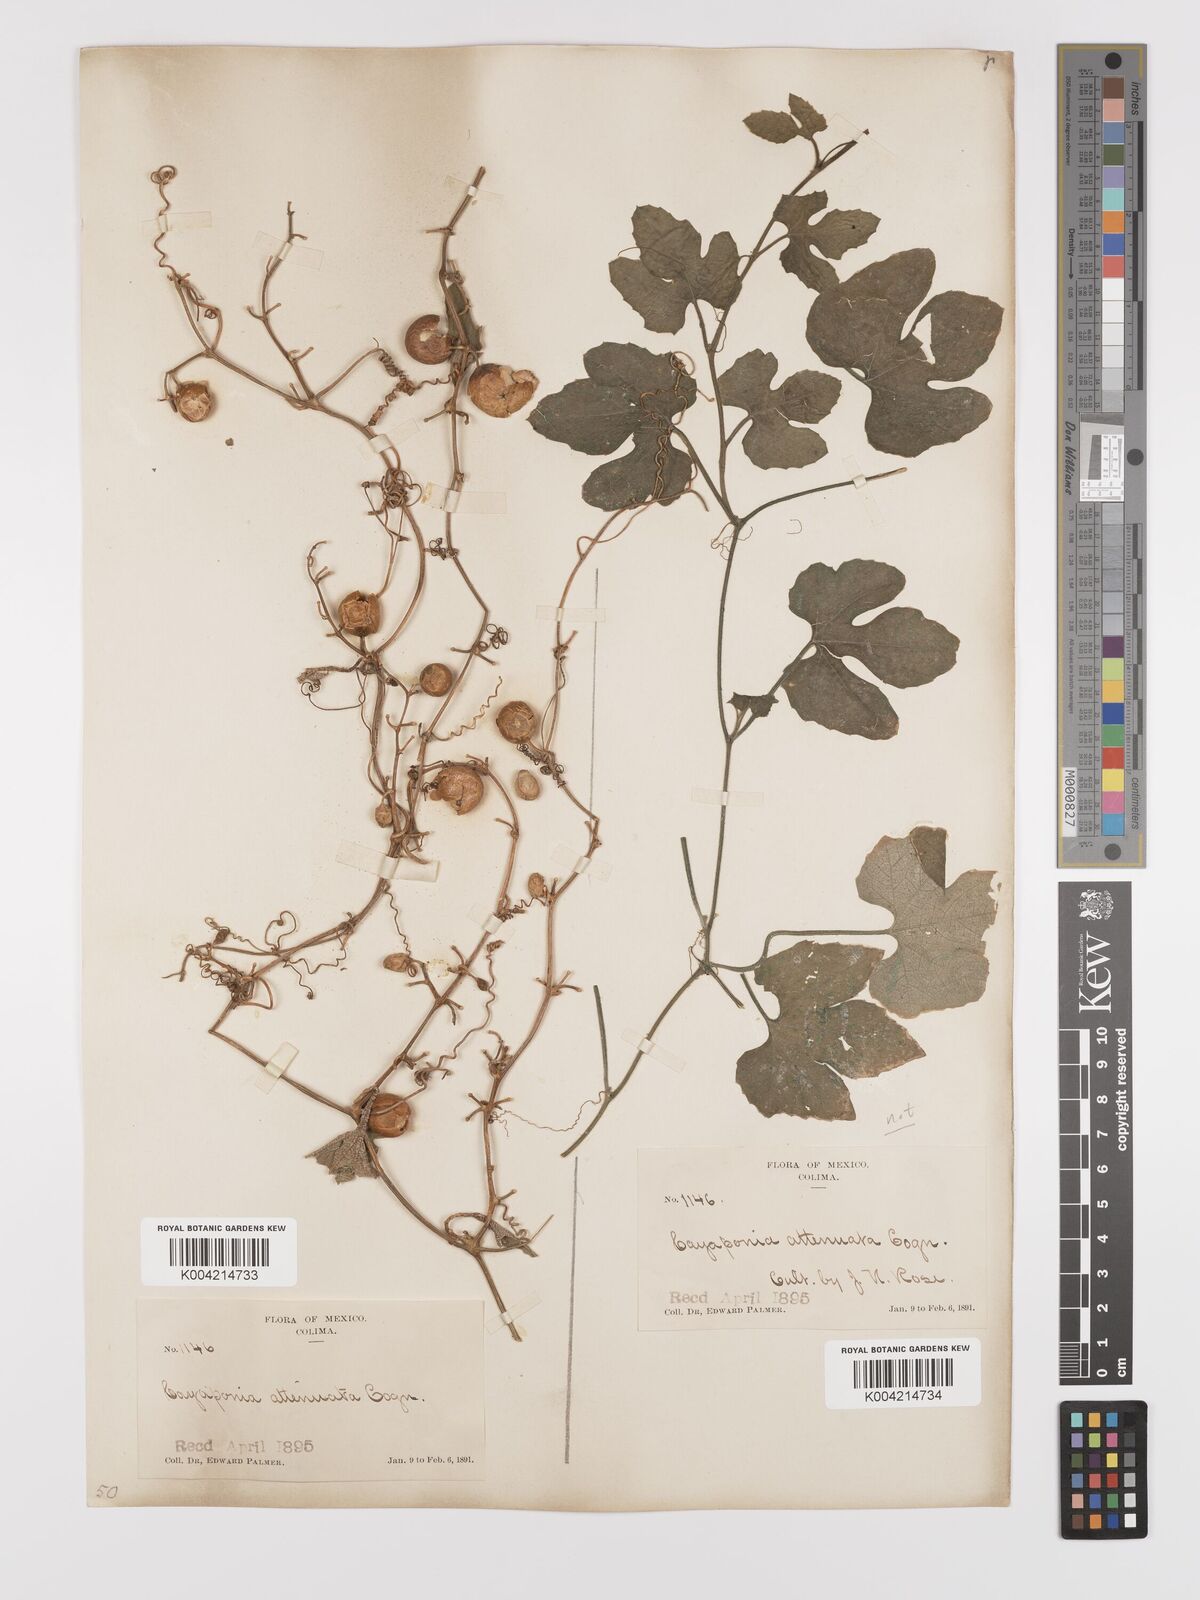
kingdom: Plantae
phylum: Tracheophyta
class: Magnoliopsida
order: Cucurbitales
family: Cucurbitaceae
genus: Cayaponia
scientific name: Cayaponia attenuata
